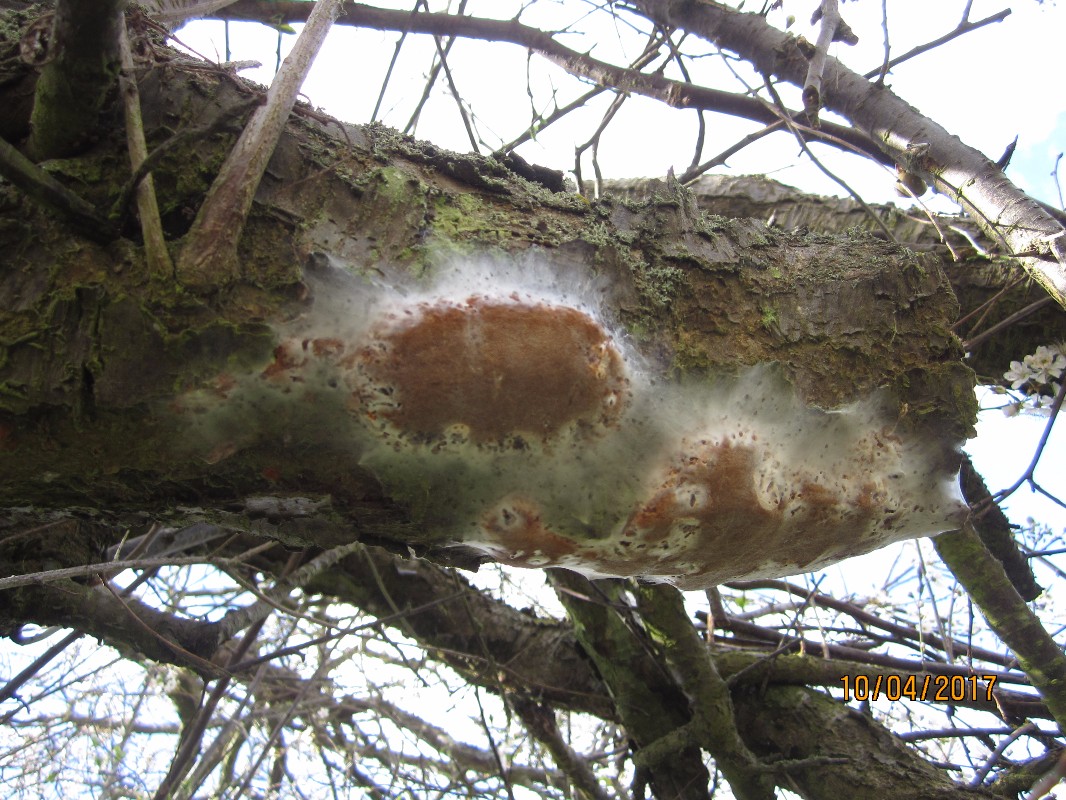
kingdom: Fungi
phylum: Basidiomycota
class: Agaricomycetes
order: Hymenochaetales
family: Hymenochaetaceae
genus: Phellinus
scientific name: Phellinus pomaceus
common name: blomme-ildporesvamp
